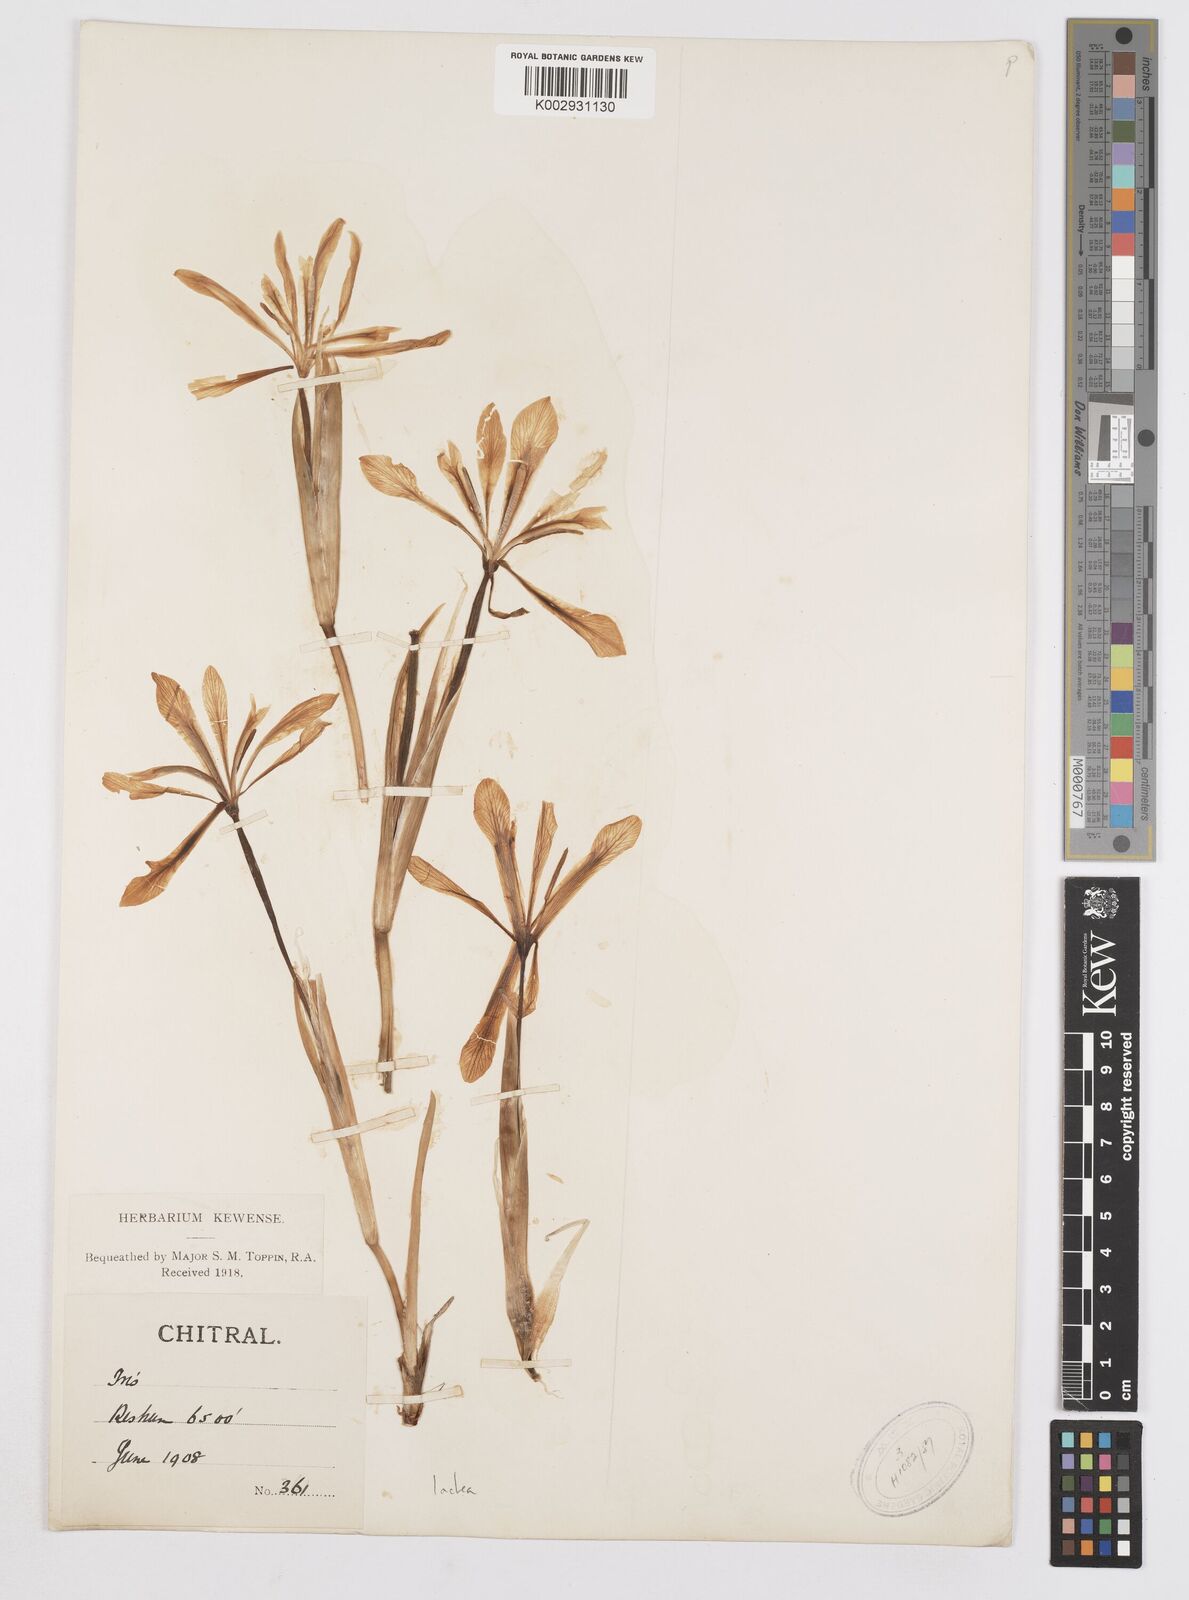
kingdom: Plantae
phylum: Tracheophyta
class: Liliopsida
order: Asparagales
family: Iridaceae
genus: Iris
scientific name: Iris lactea
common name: White-flower chinese iris
